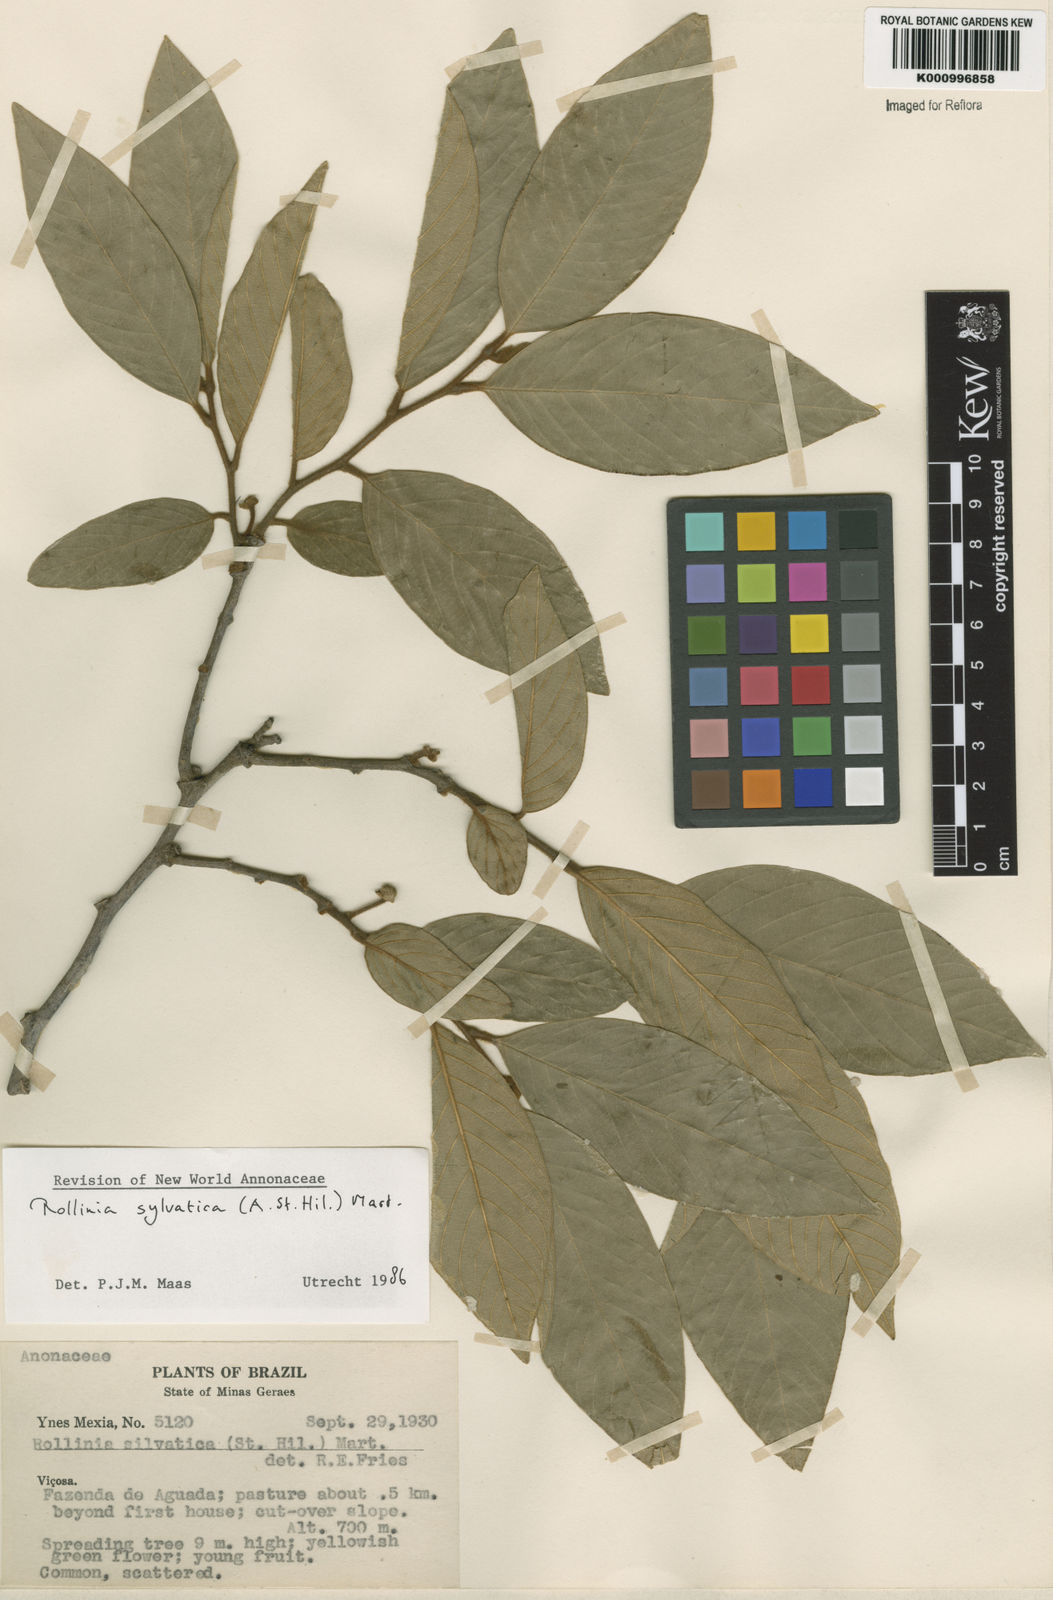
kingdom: Plantae
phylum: Tracheophyta
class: Magnoliopsida
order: Magnoliales
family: Annonaceae
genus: Annona
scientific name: Annona sylvatica
